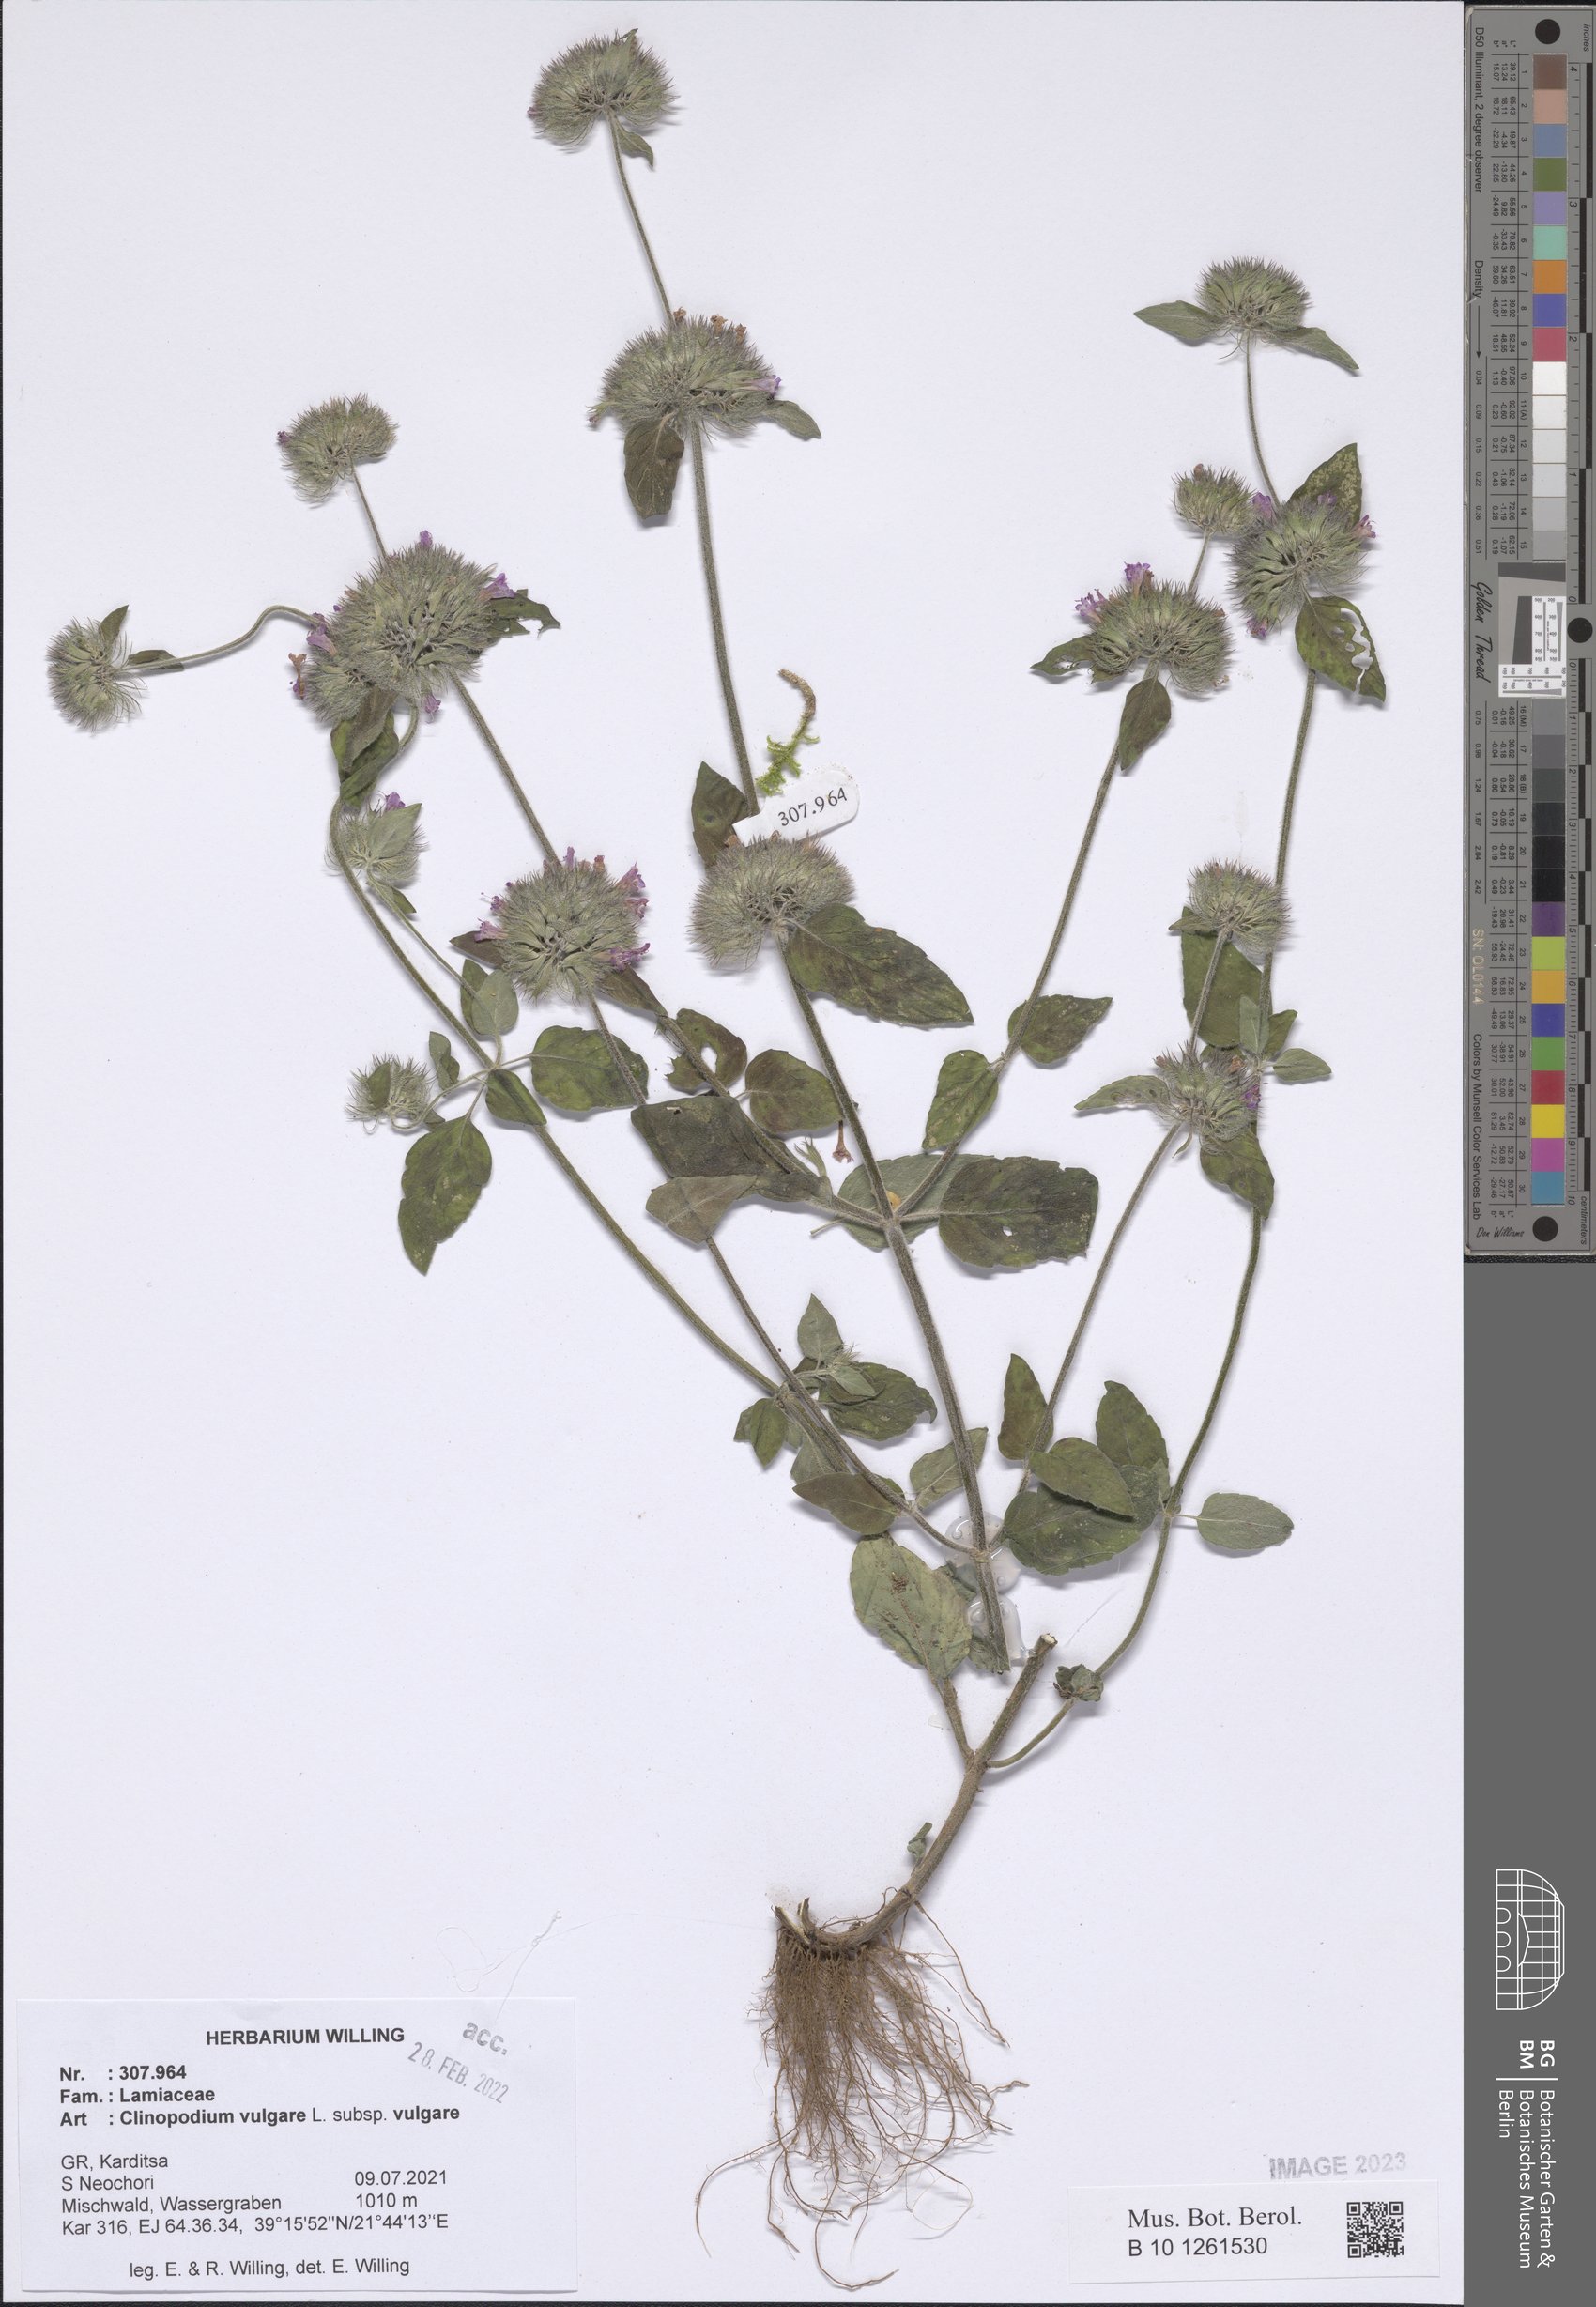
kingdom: Plantae
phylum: Tracheophyta
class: Magnoliopsida
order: Lamiales
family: Lamiaceae
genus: Clinopodium
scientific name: Clinopodium vulgare
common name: Wild basil
